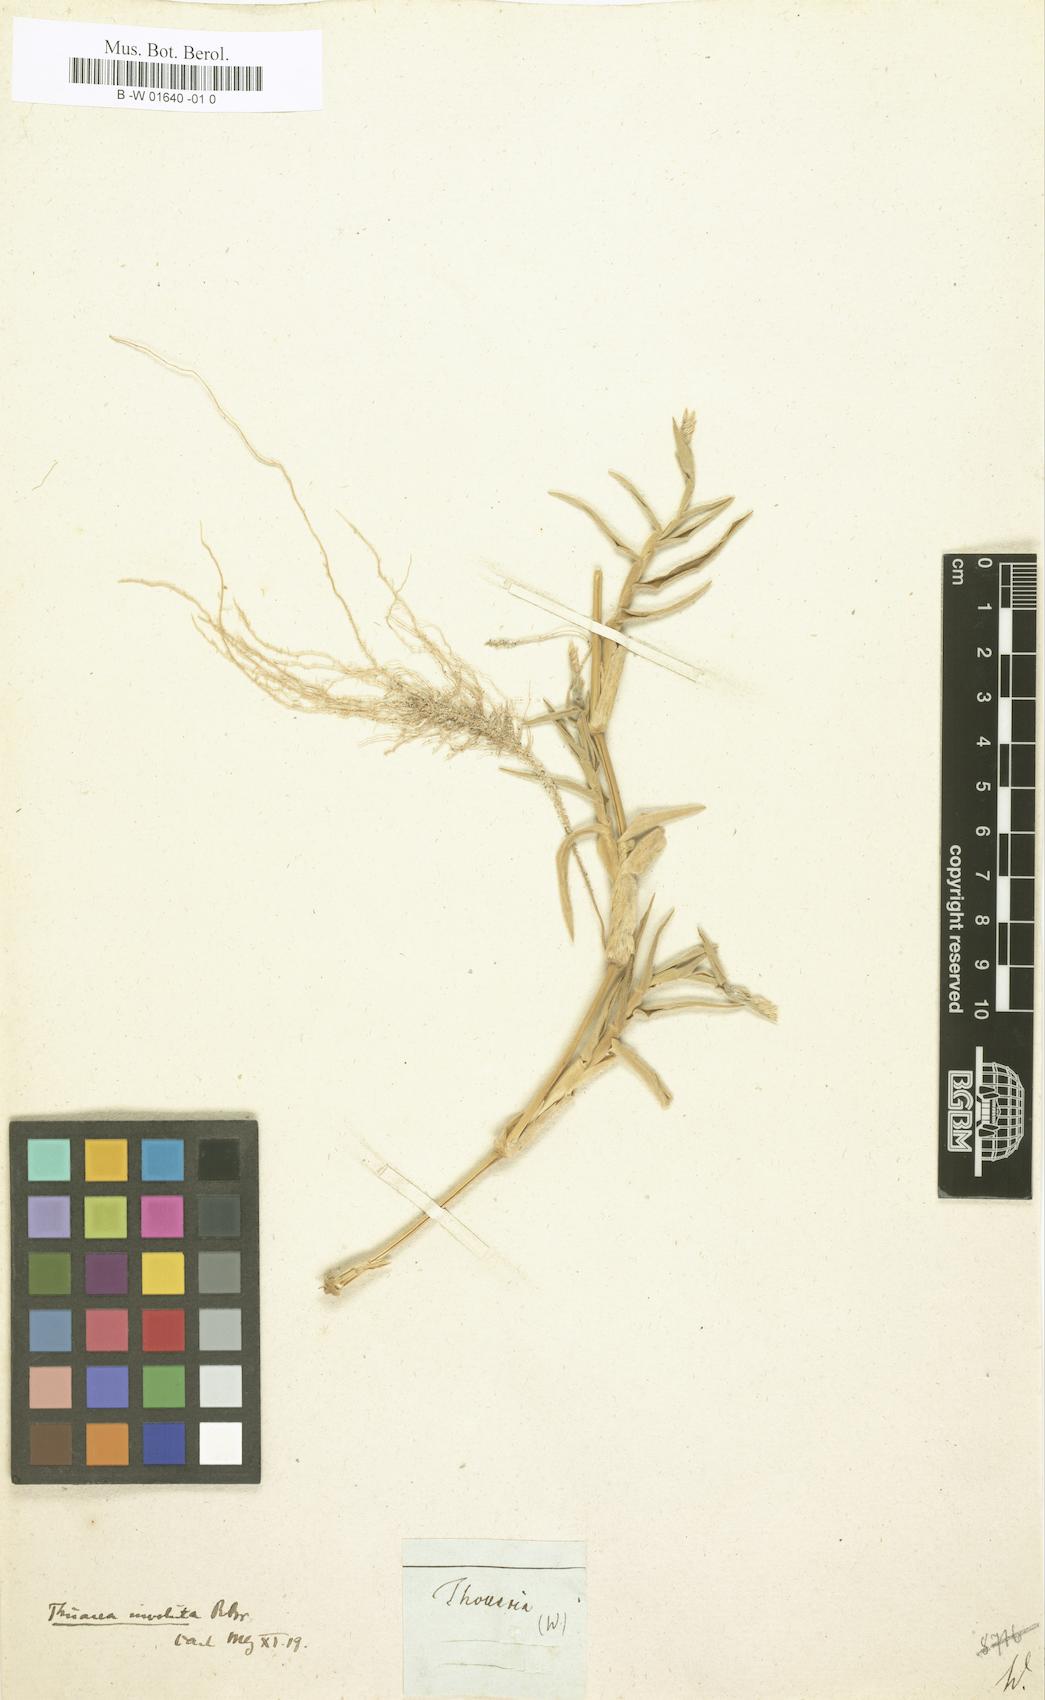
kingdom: Plantae
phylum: Tracheophyta
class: Magnoliopsida
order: Asterales
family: Asteraceae
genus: Thouarsia
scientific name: Thouarsia
